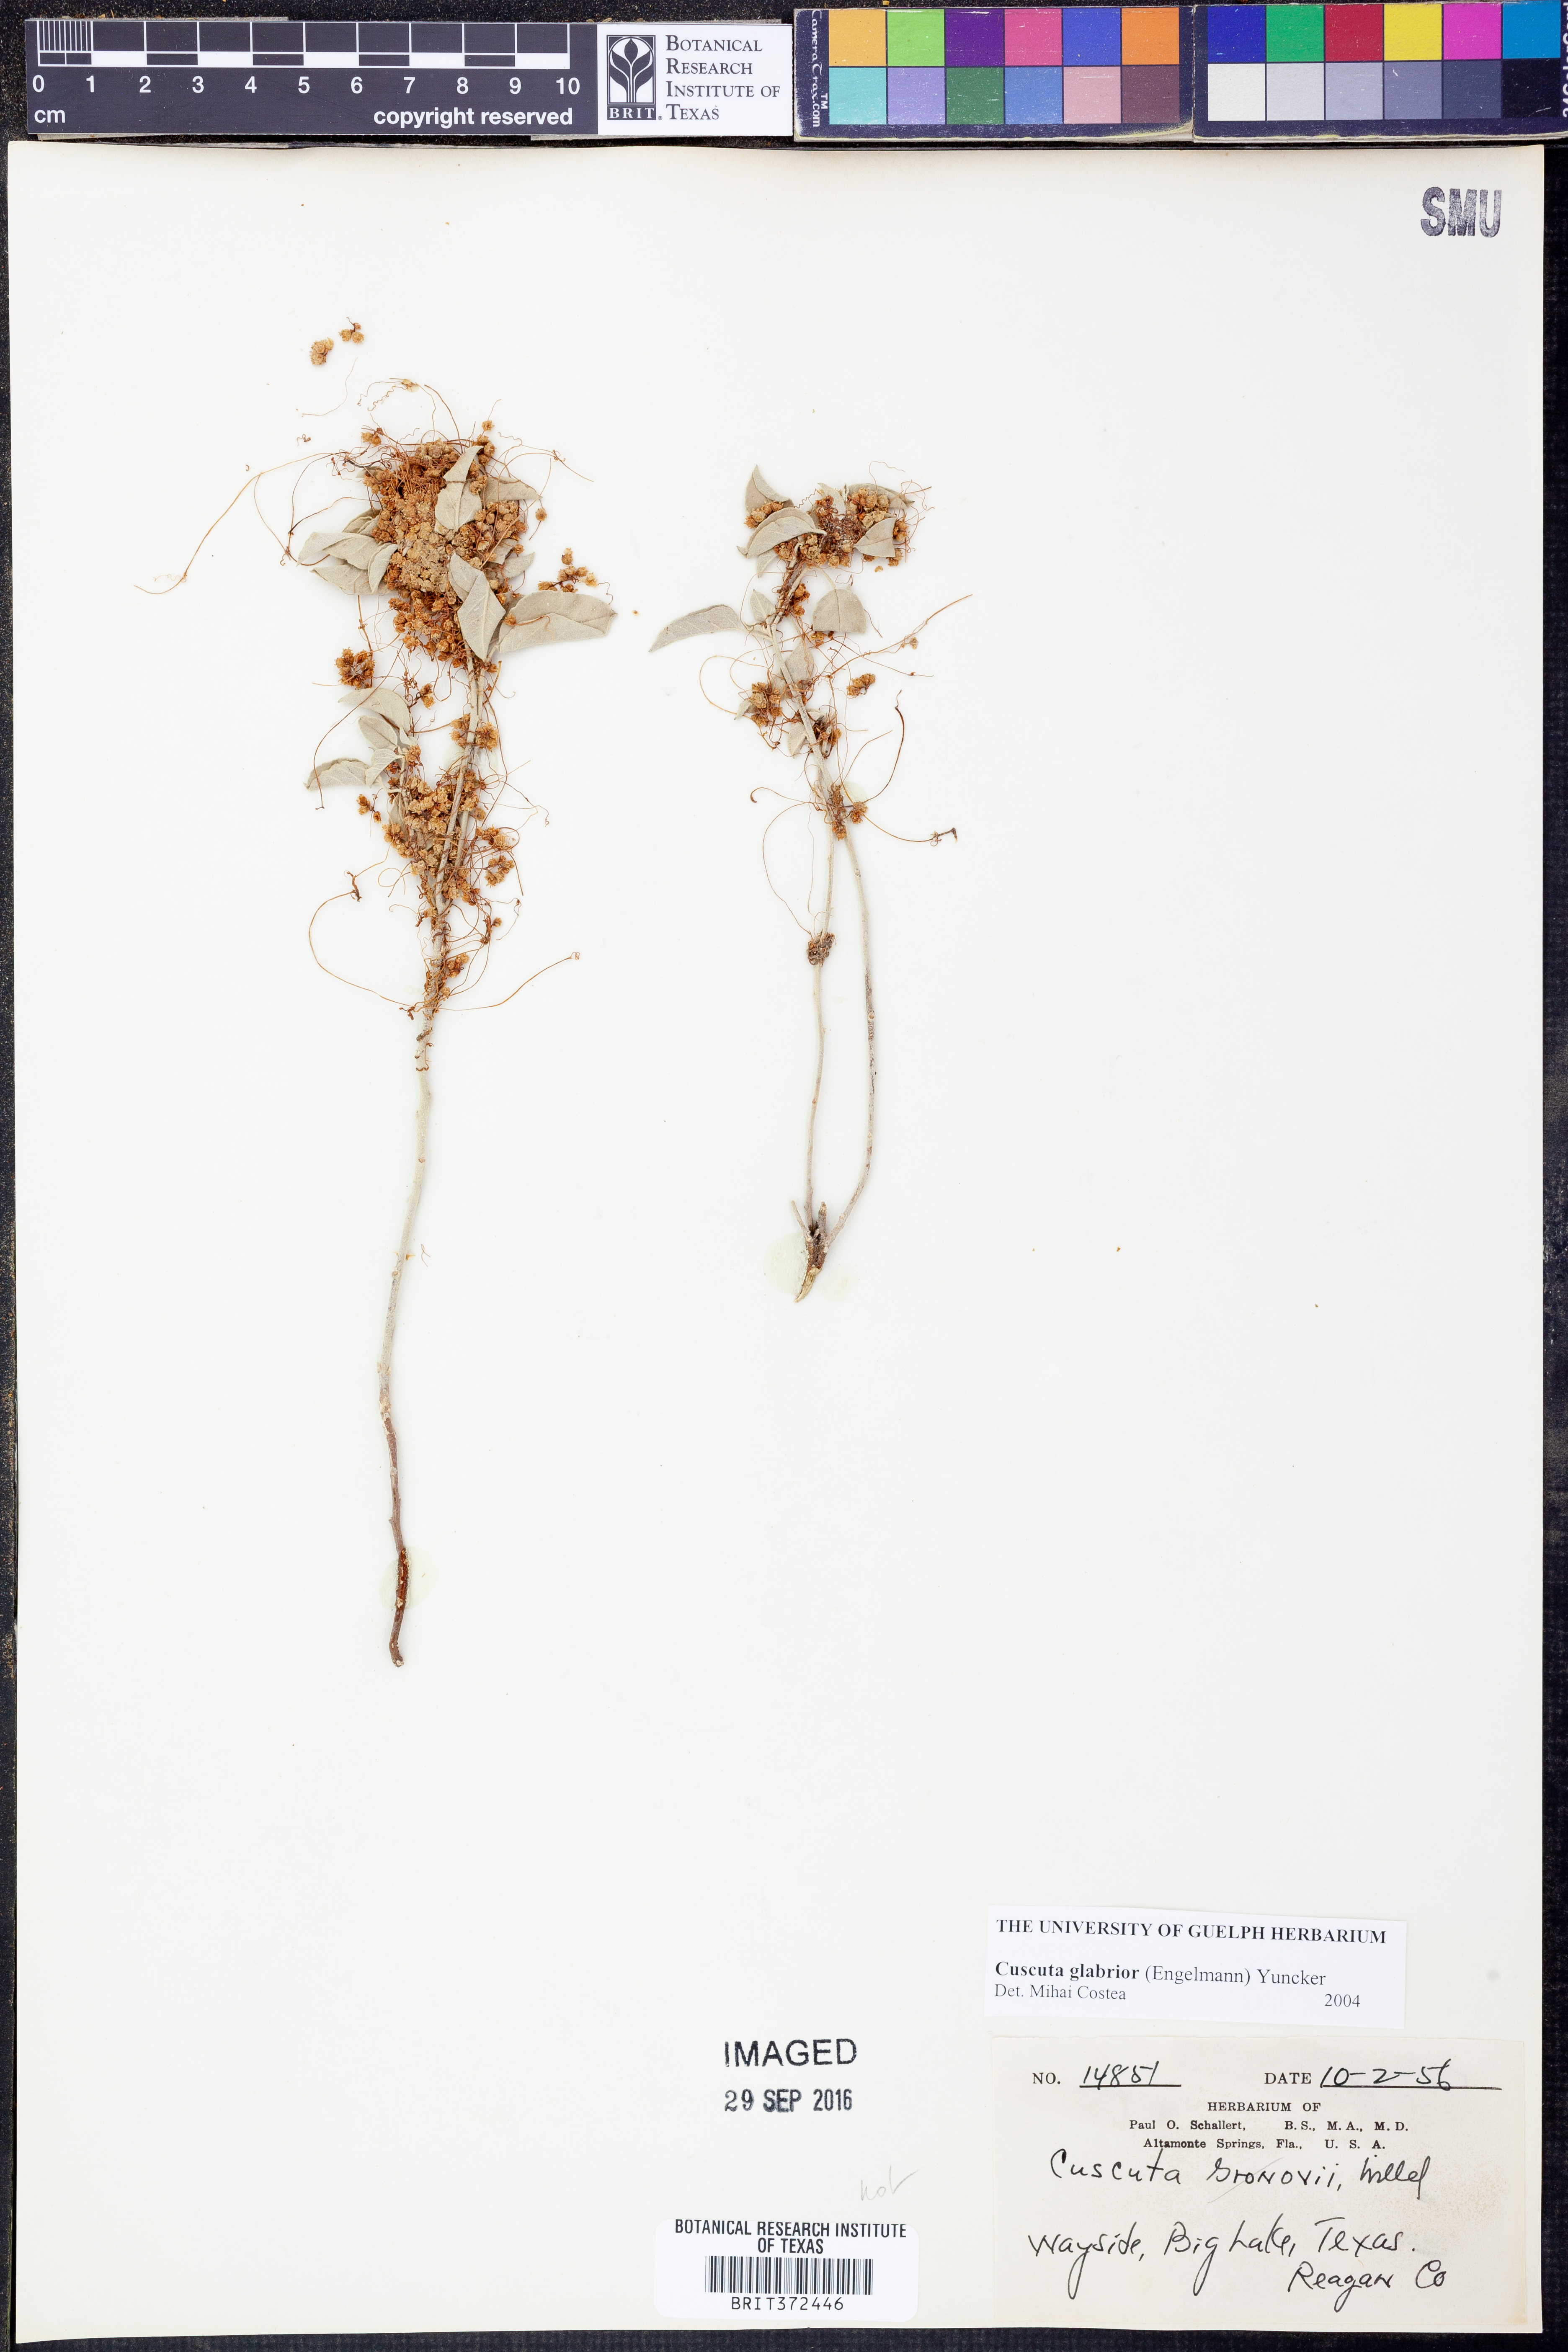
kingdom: Plantae
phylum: Tracheophyta
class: Magnoliopsida
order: Solanales
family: Convolvulaceae
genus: Cuscuta
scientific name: Cuscuta glabrior
